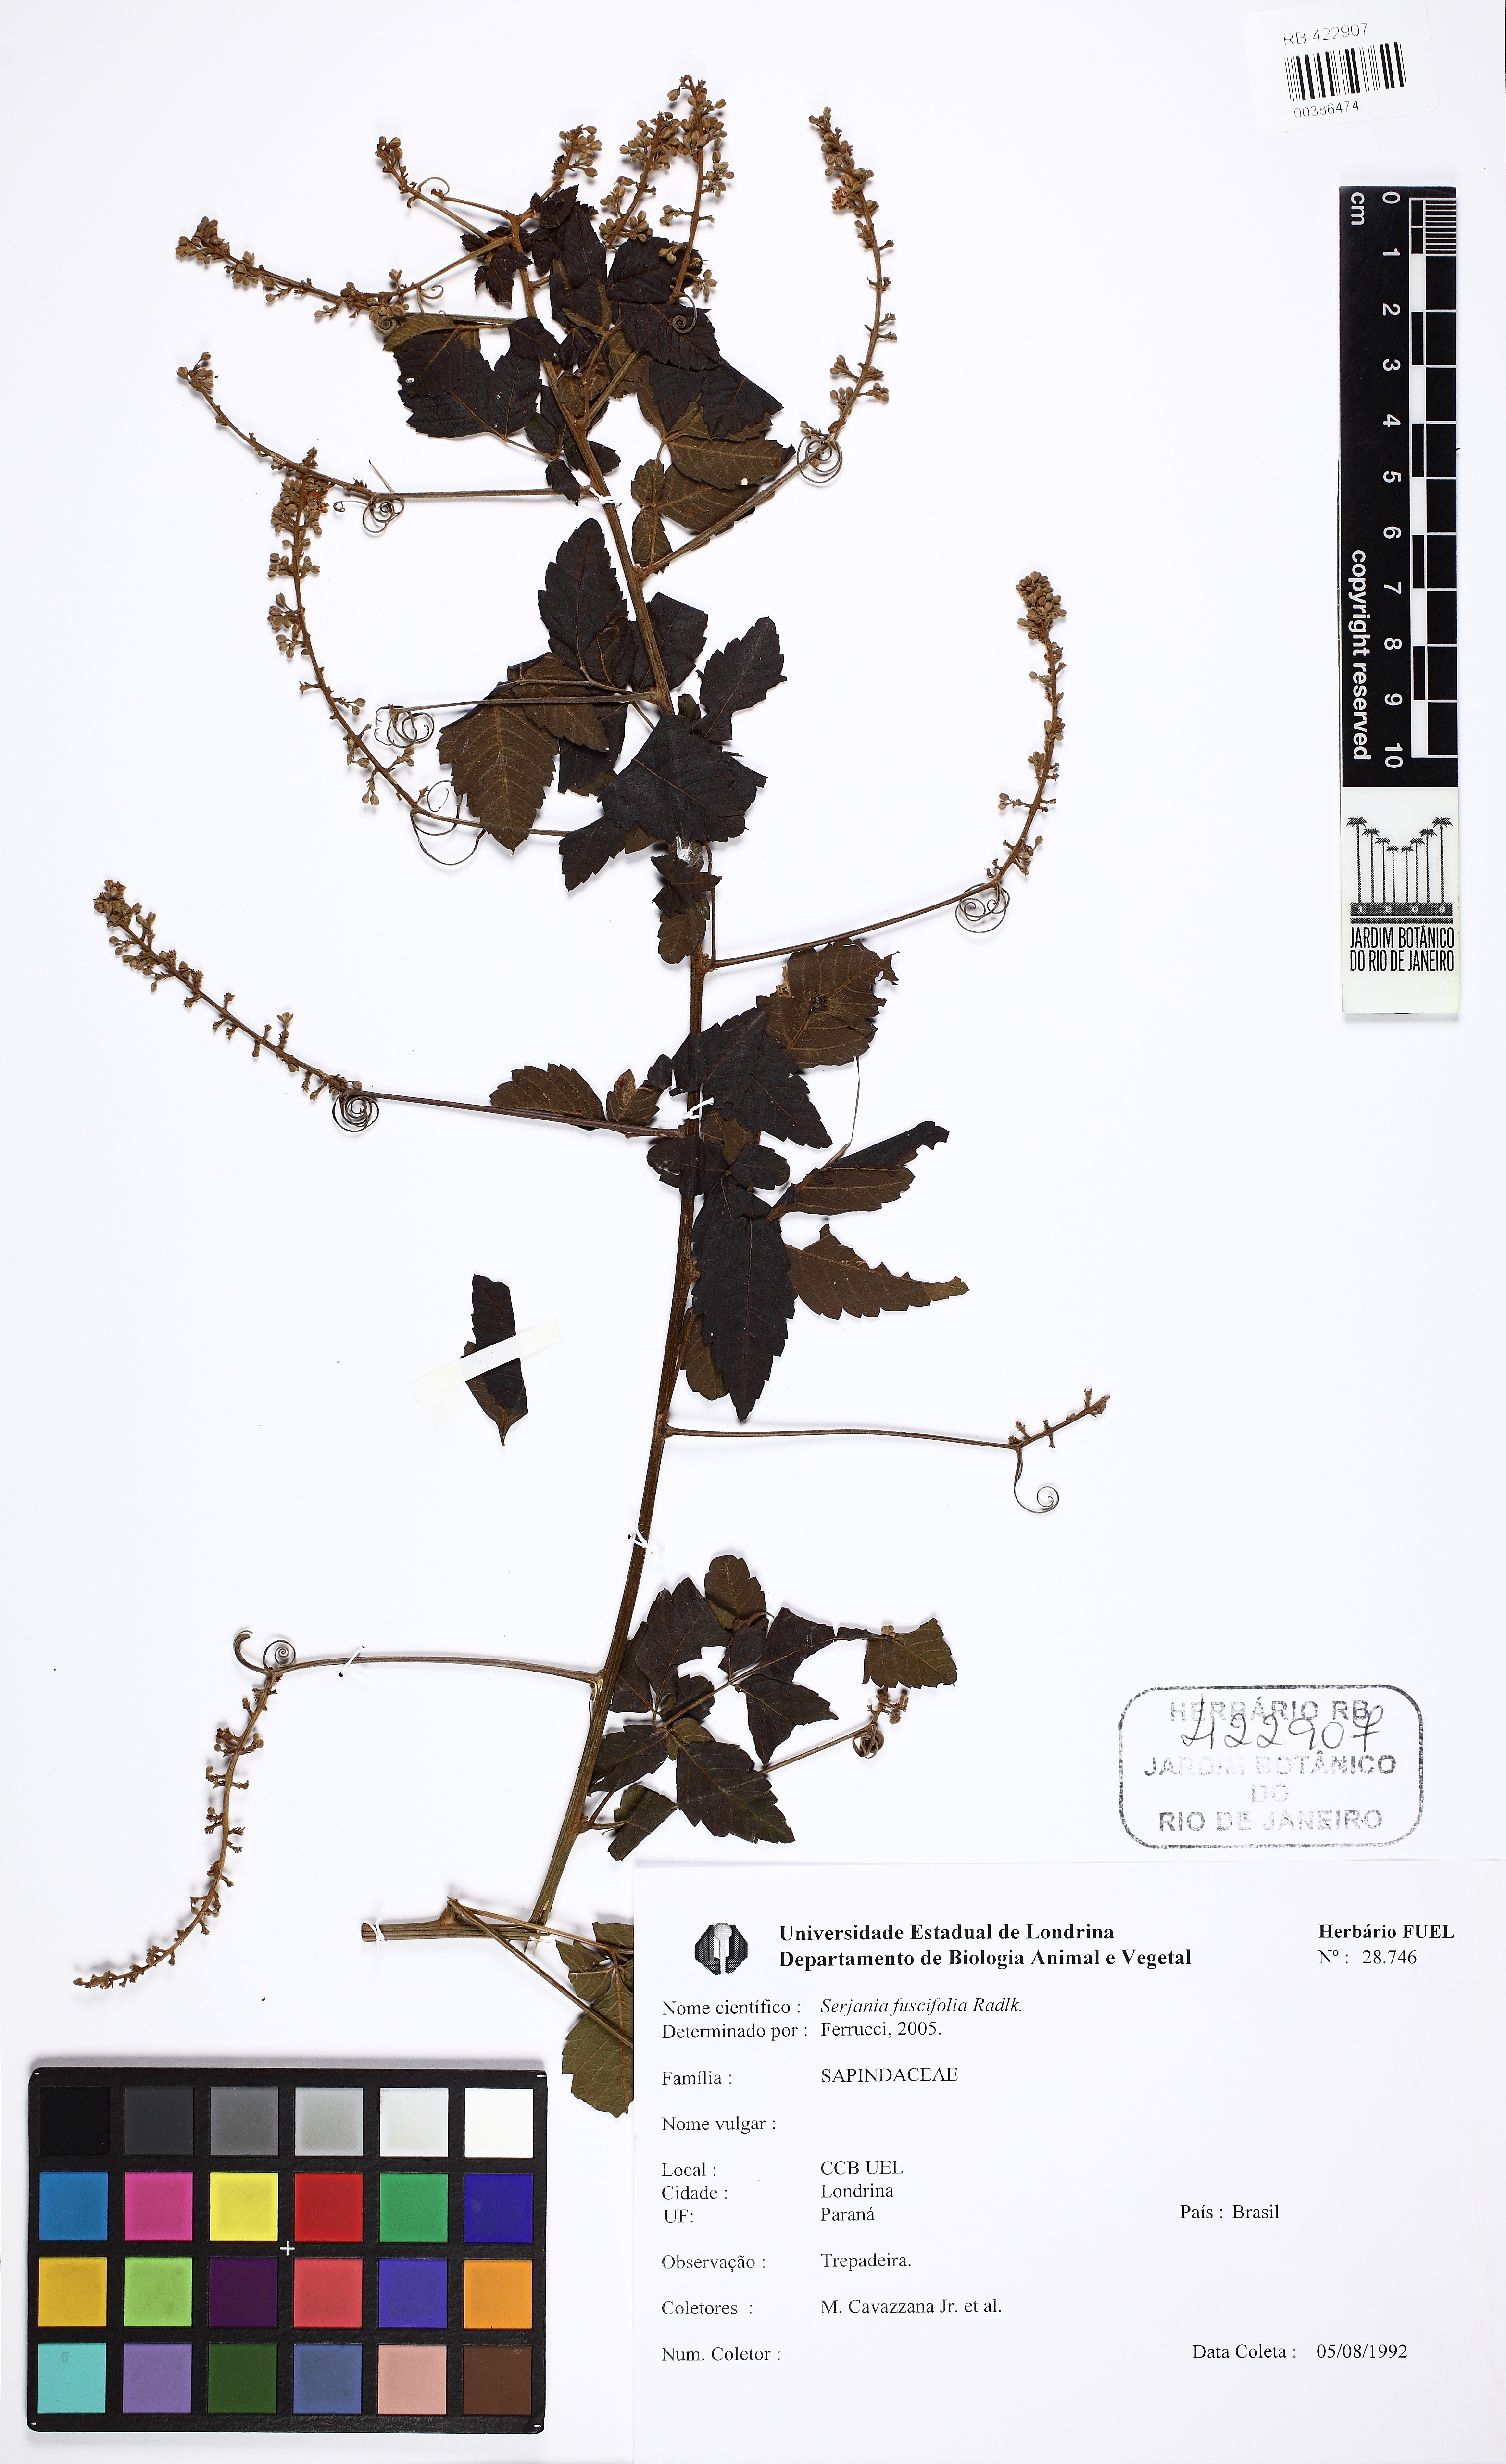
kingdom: Plantae
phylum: Tracheophyta
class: Magnoliopsida
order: Sapindales
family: Sapindaceae
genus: Serjania
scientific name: Serjania fuscifolia
